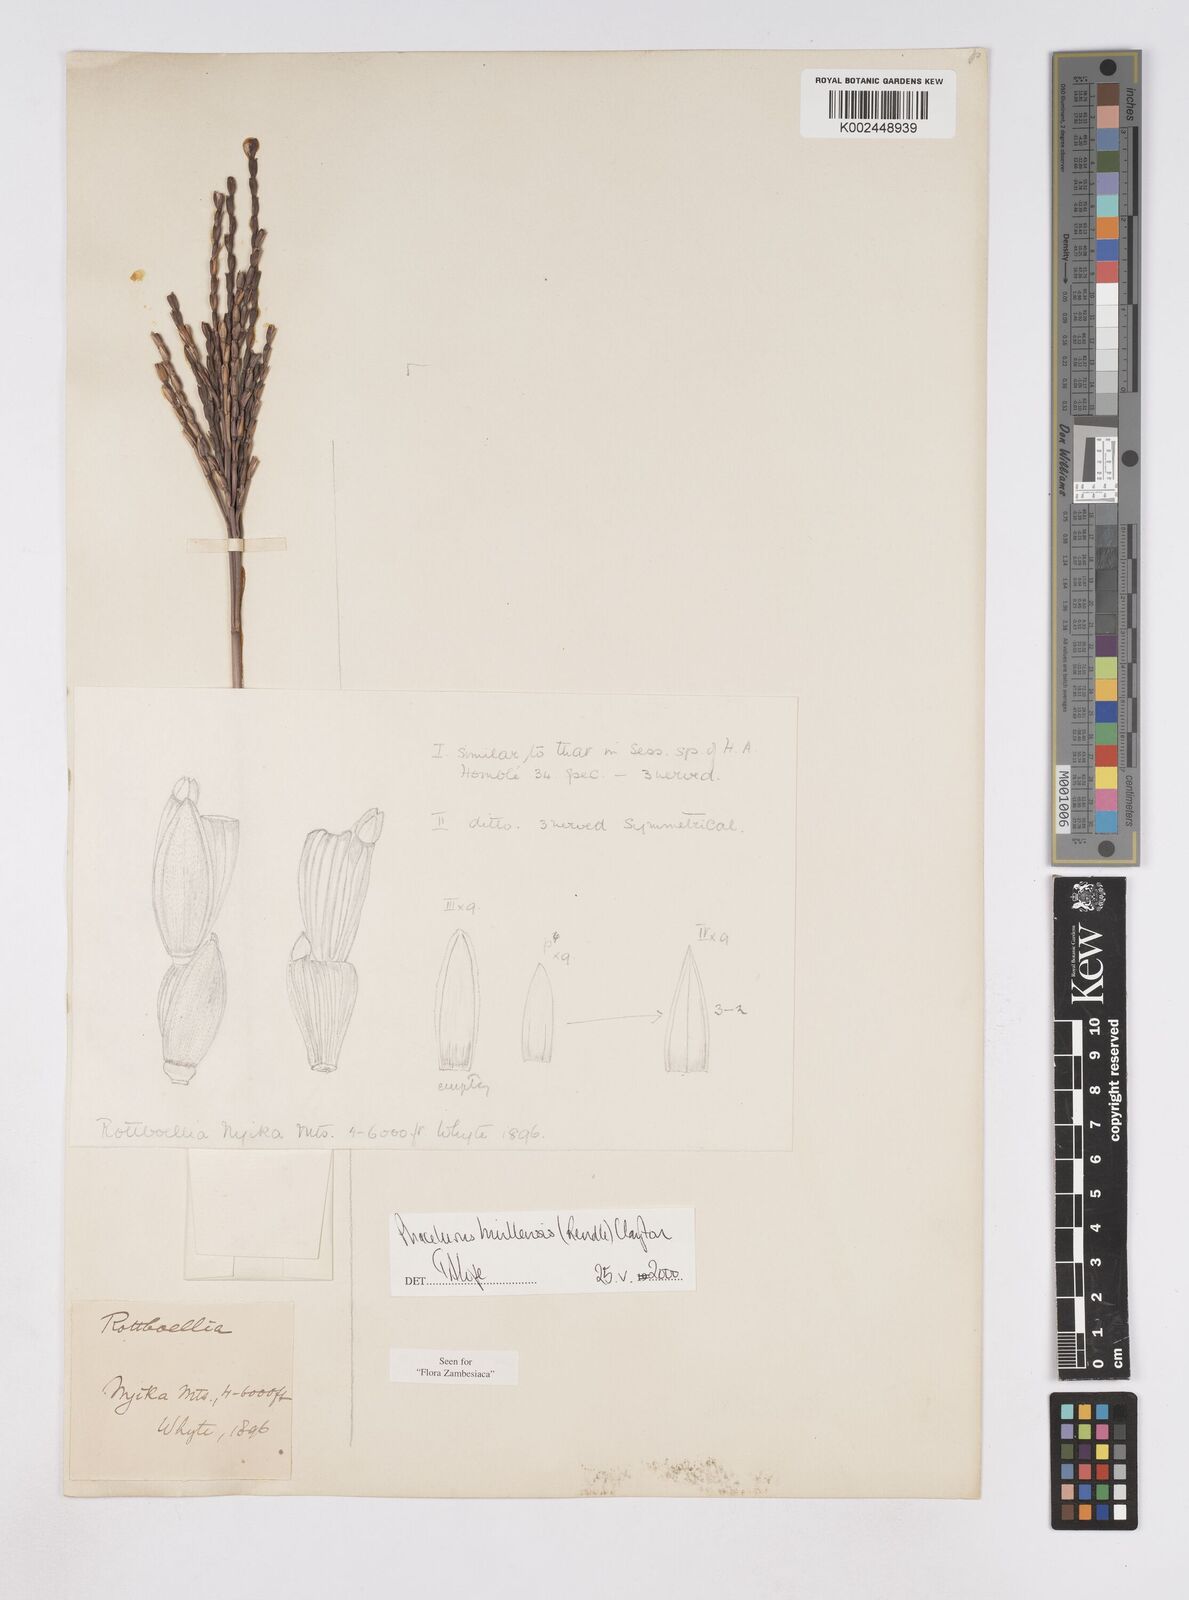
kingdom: Plantae
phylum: Tracheophyta
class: Liliopsida
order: Poales
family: Poaceae
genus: Thyrsia
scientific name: Thyrsia huillensis
